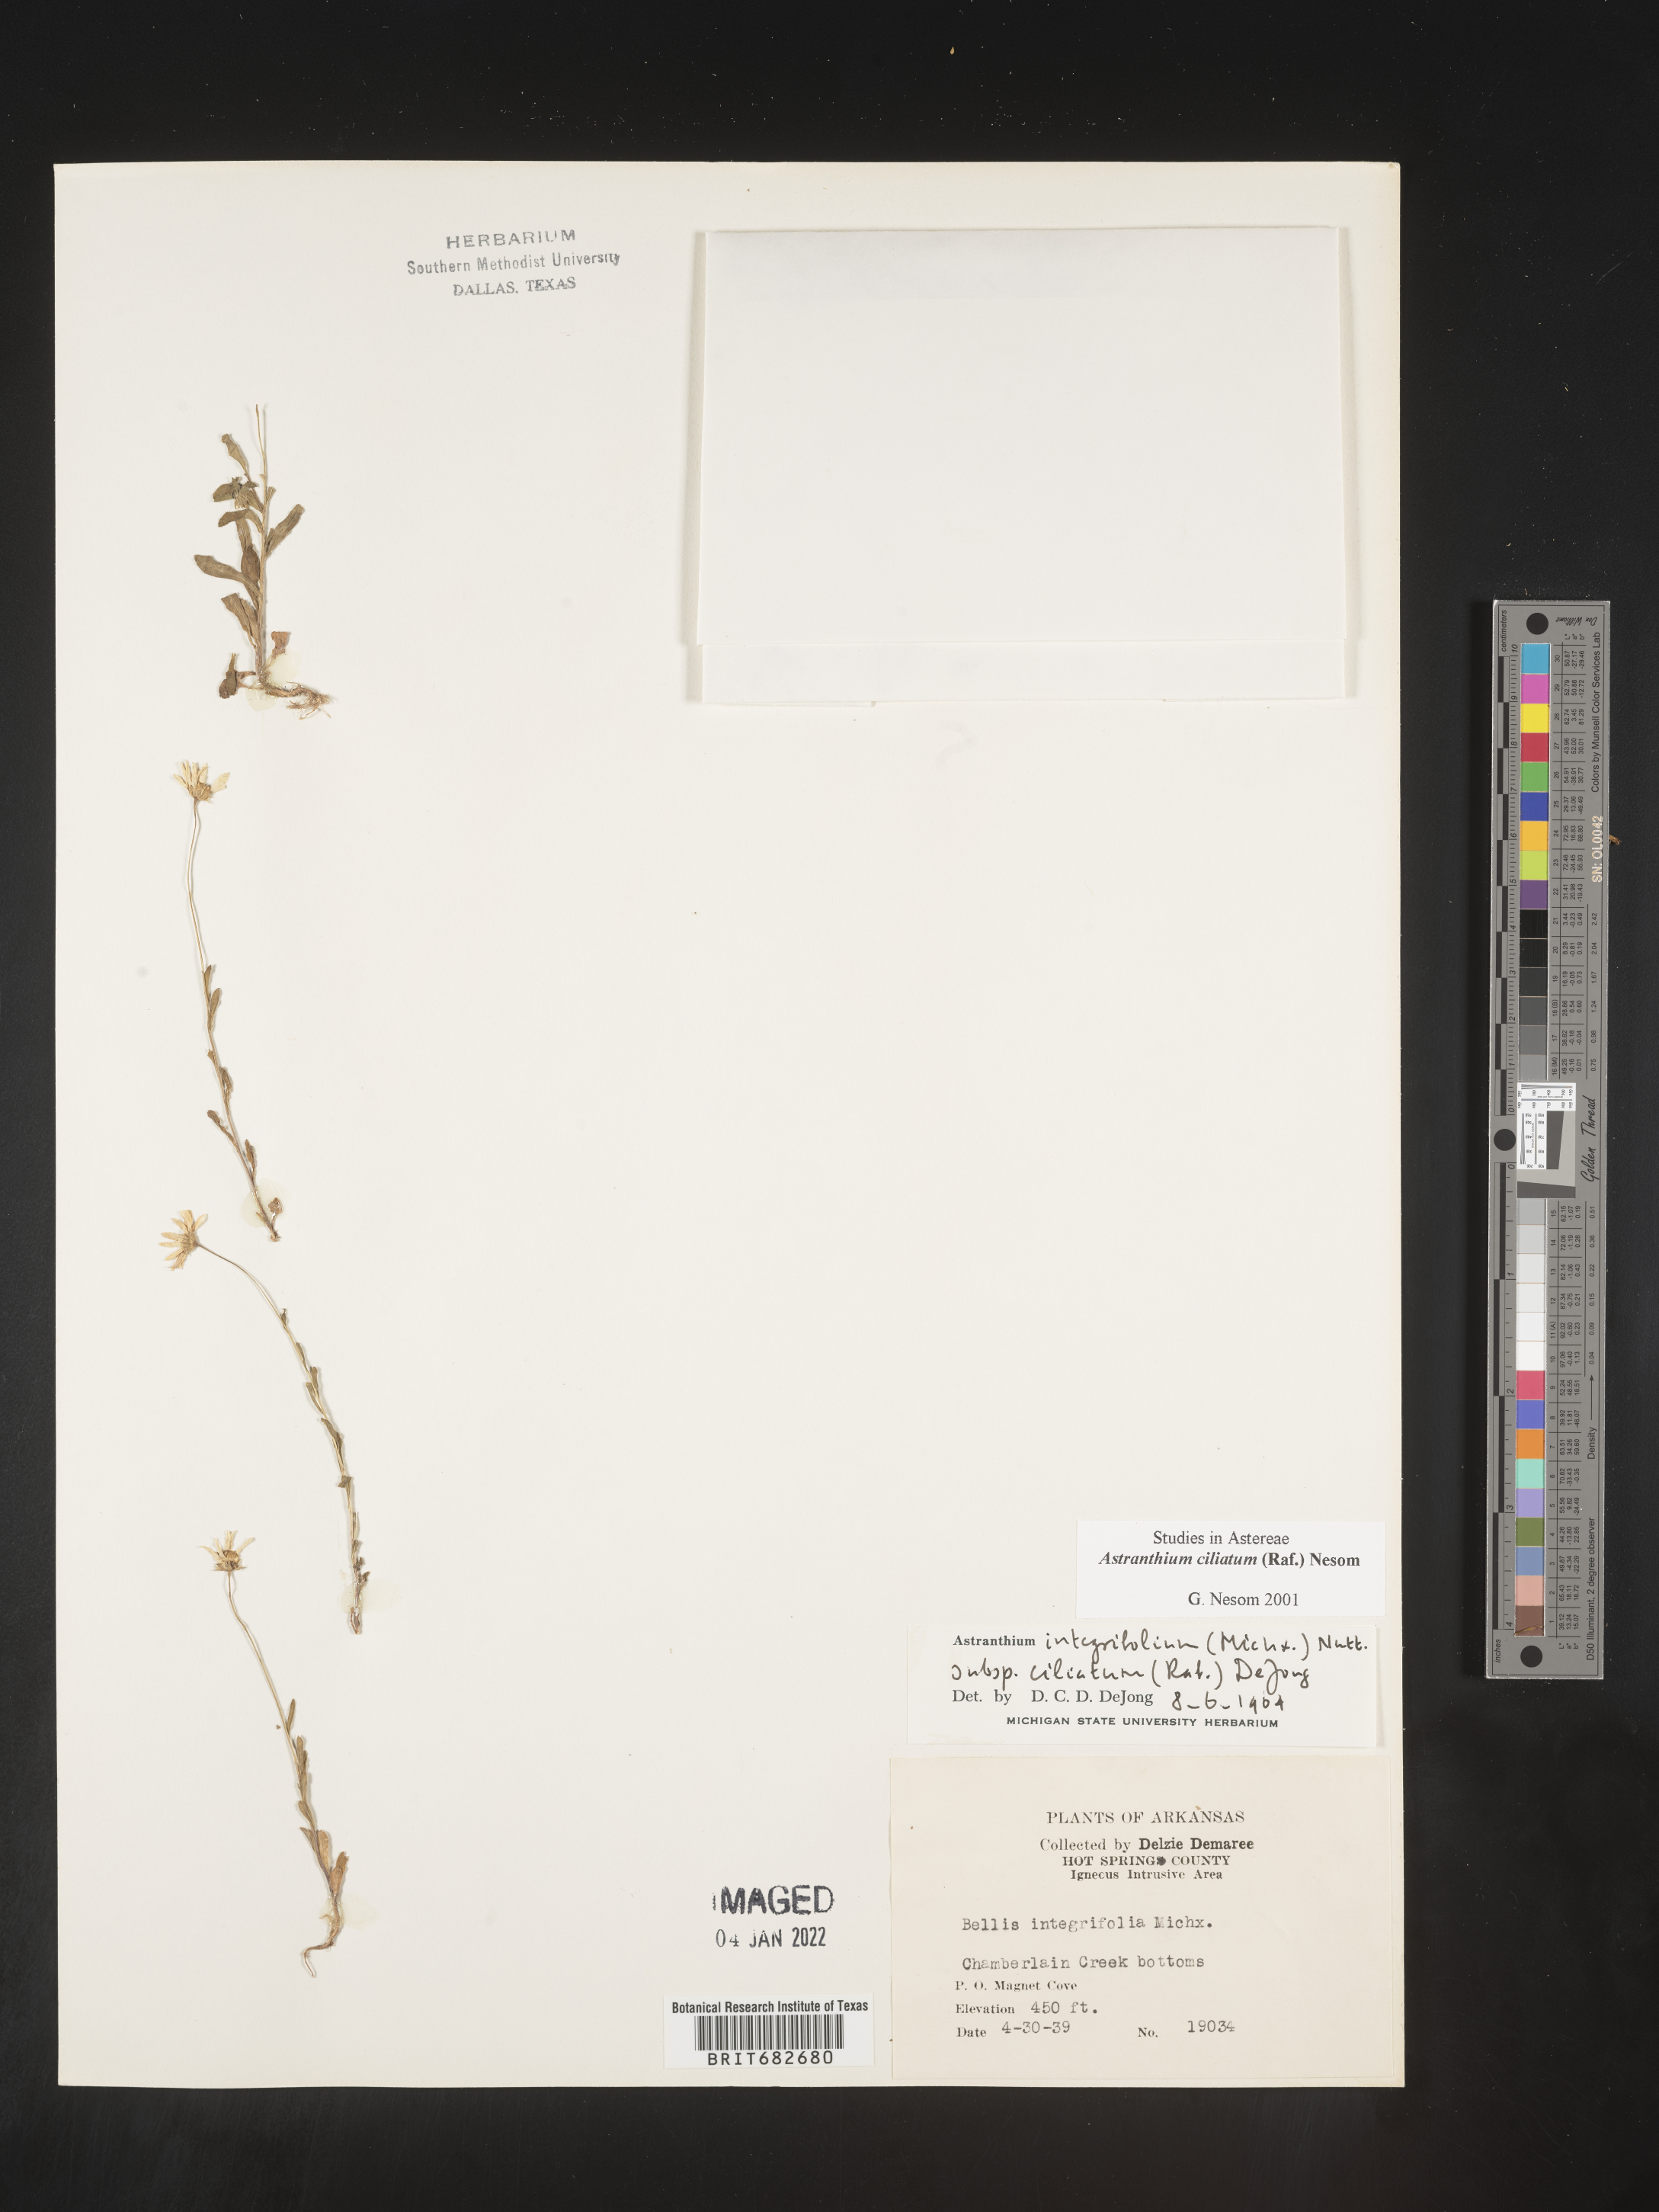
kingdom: Plantae
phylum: Tracheophyta
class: Magnoliopsida
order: Asterales
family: Asteraceae
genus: Astranthium
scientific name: Astranthium ciliatum
